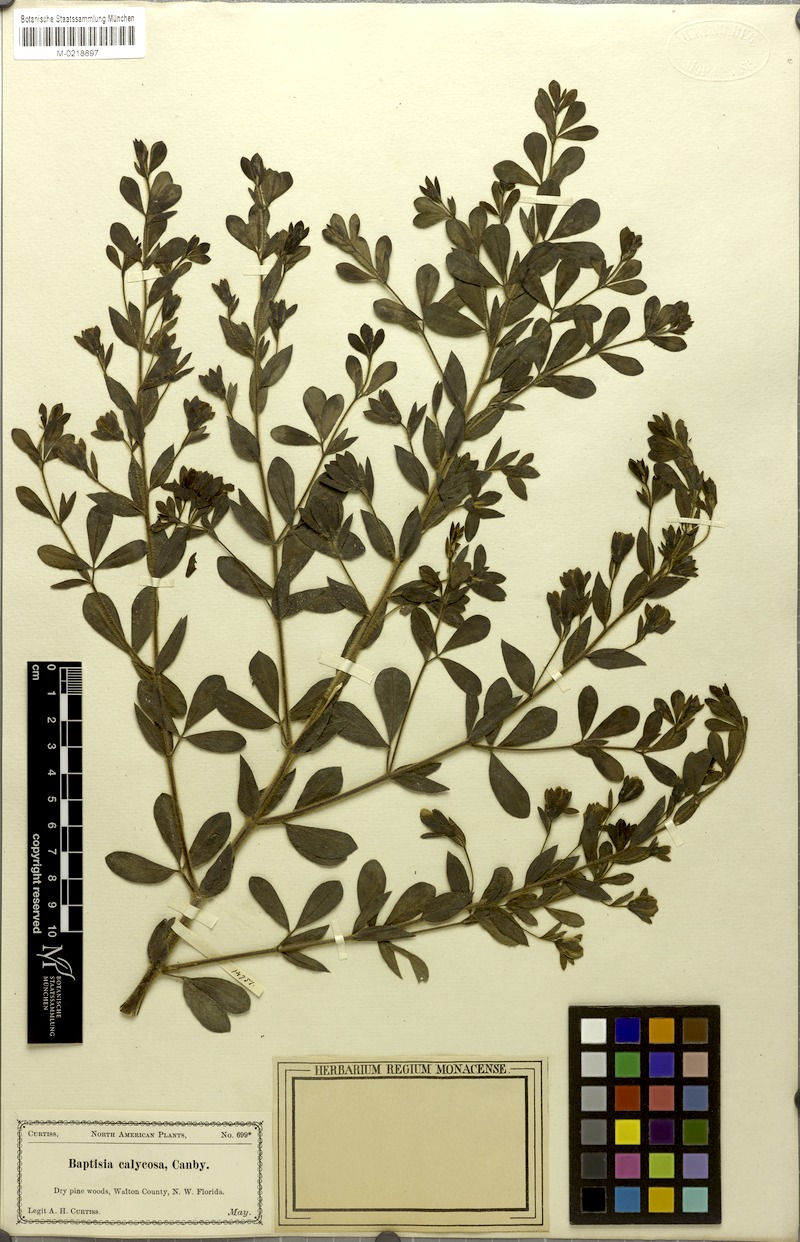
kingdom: Plantae
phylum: Tracheophyta
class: Magnoliopsida
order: Fabales
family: Fabaceae
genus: Baptisia
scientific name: Baptisia calycosa
